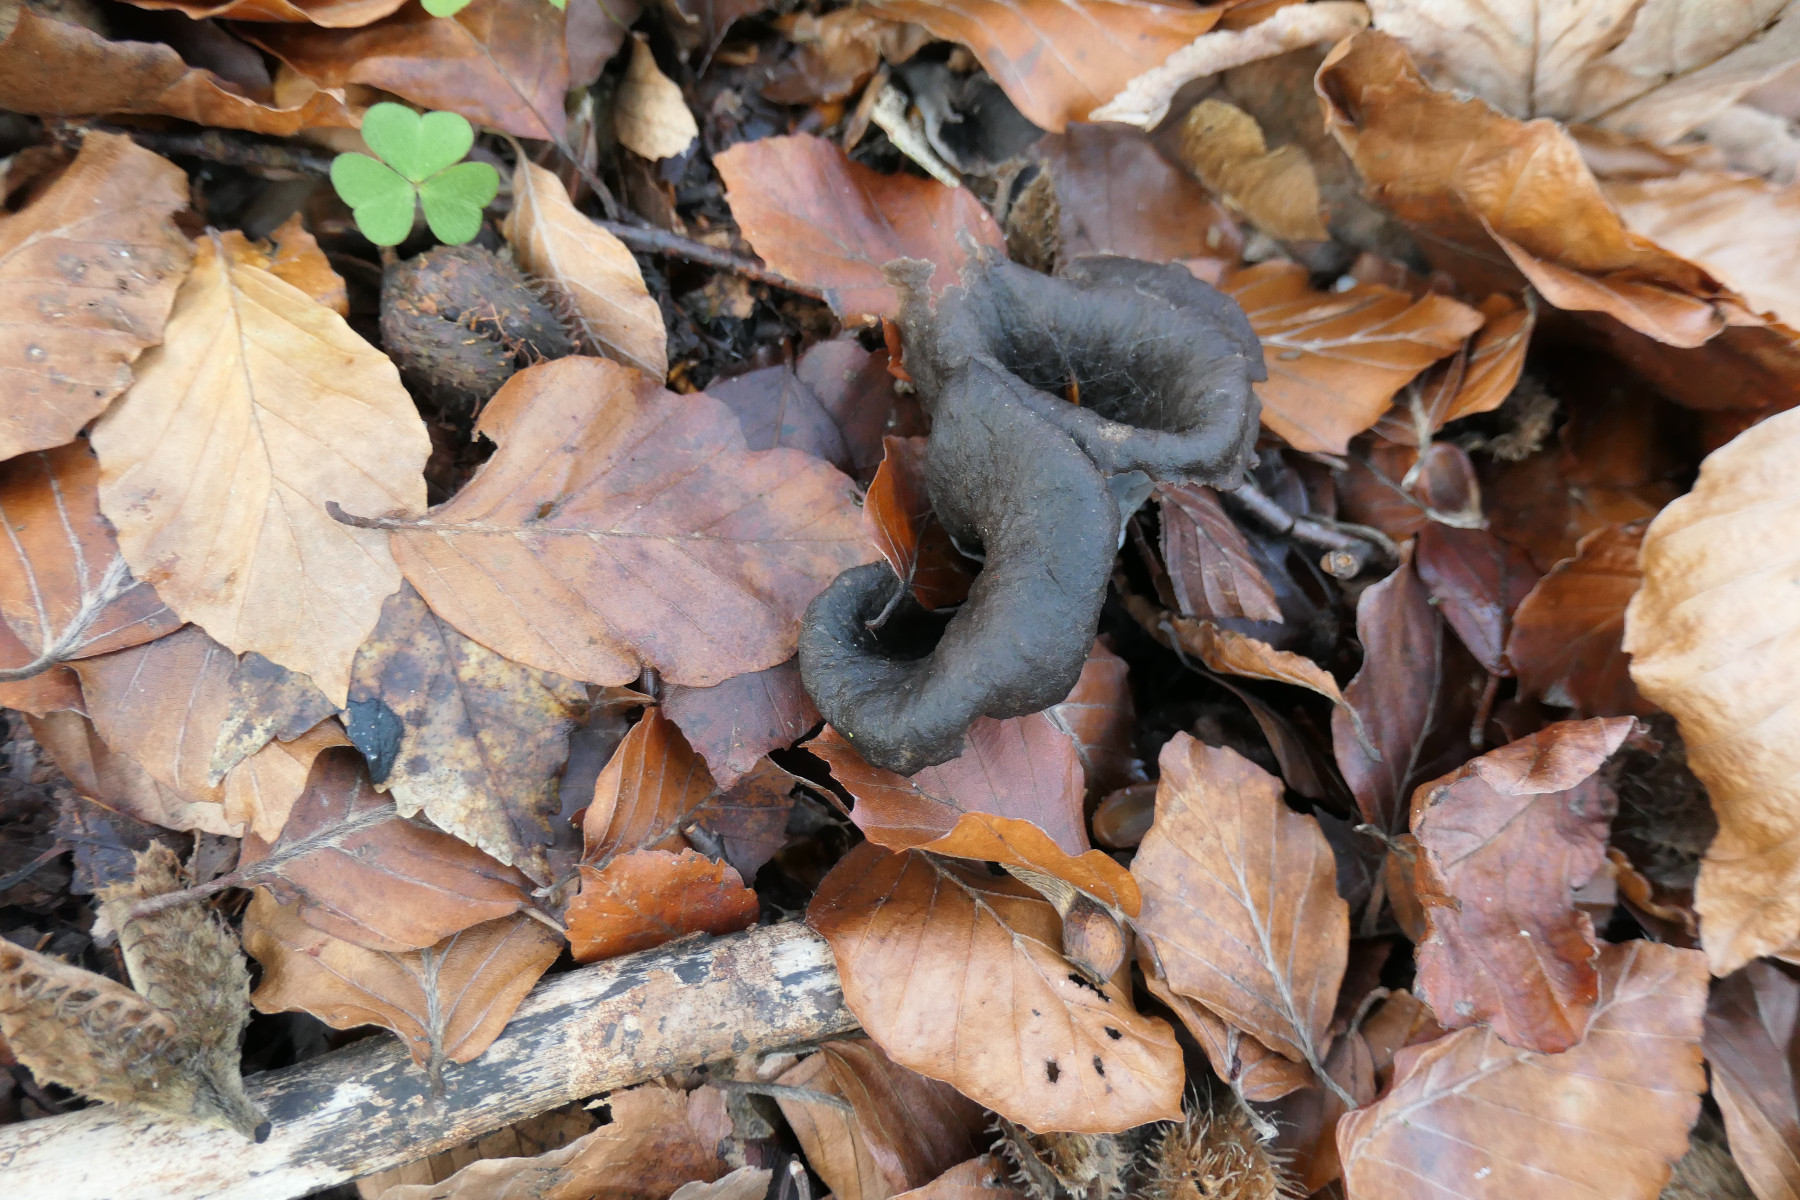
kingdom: Fungi
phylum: Basidiomycota
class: Agaricomycetes
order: Cantharellales
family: Hydnaceae
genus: Craterellus
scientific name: Craterellus cornucopioides
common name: trompetsvamp
